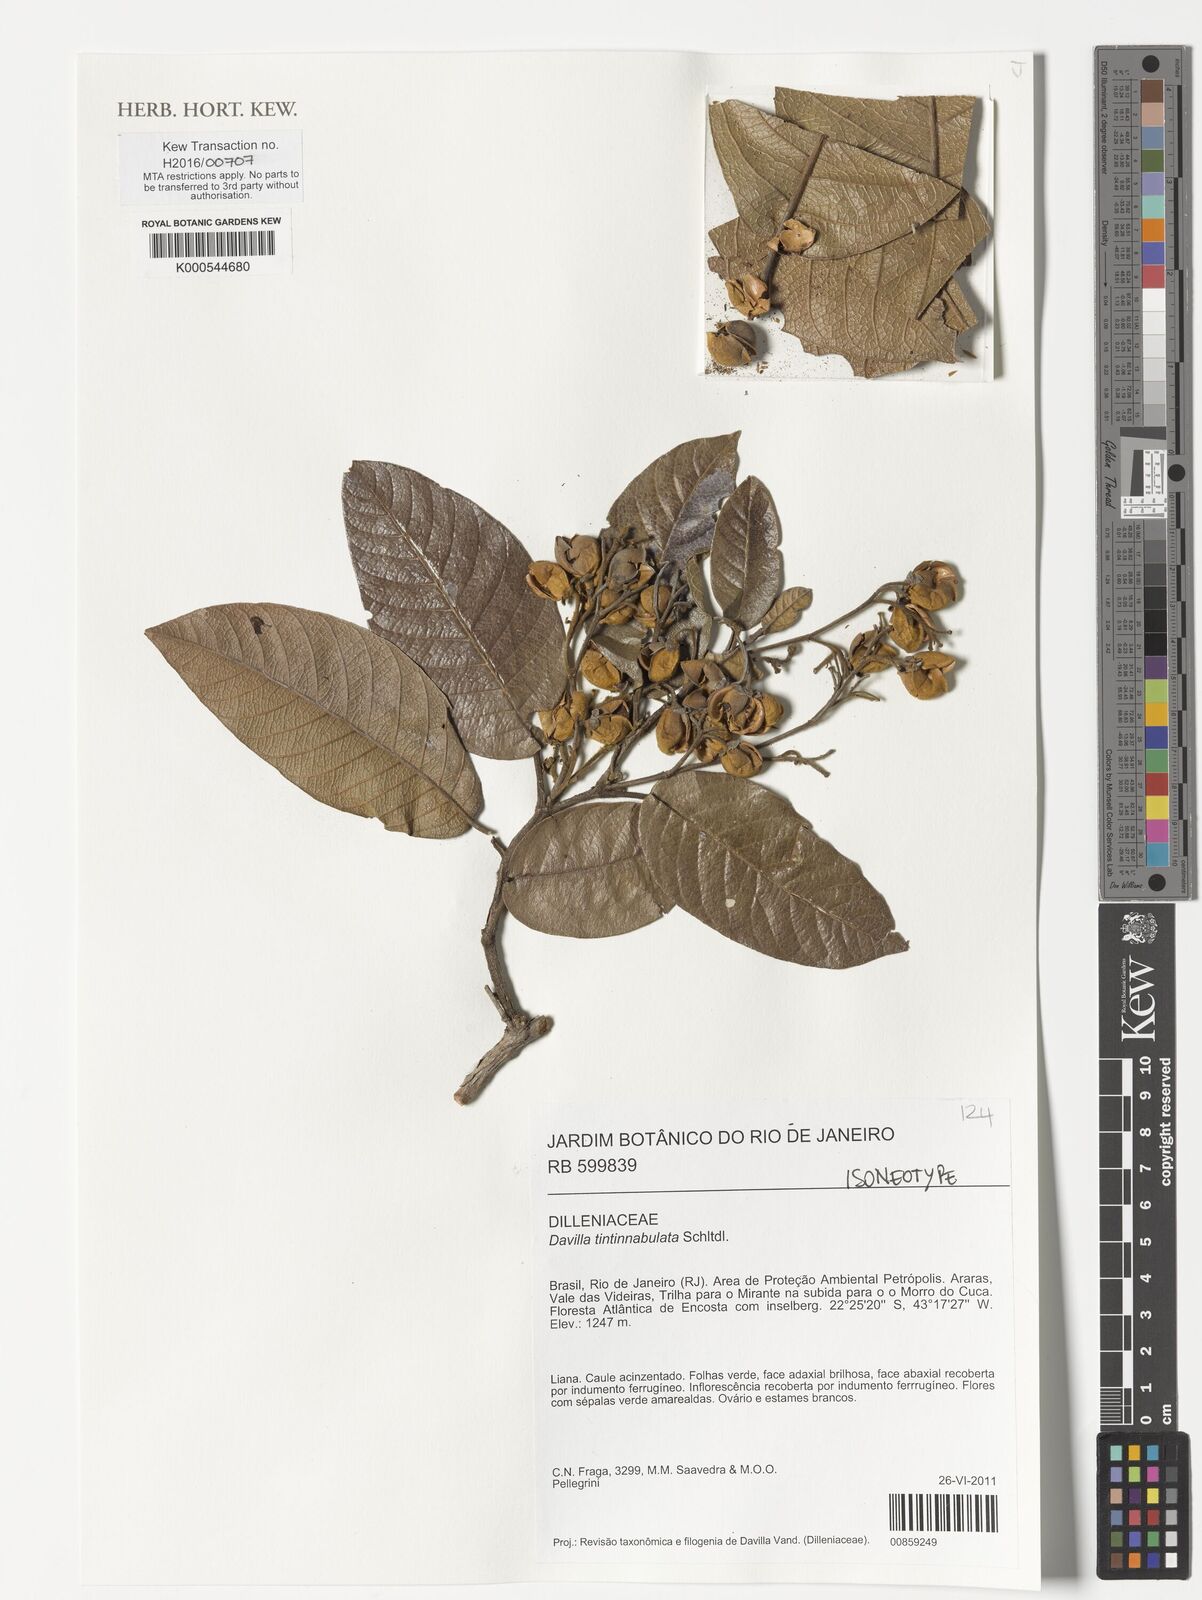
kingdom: Plantae
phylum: Tracheophyta
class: Magnoliopsida
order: Dilleniales
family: Dilleniaceae
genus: Davilla
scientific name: Davilla sellowiana
